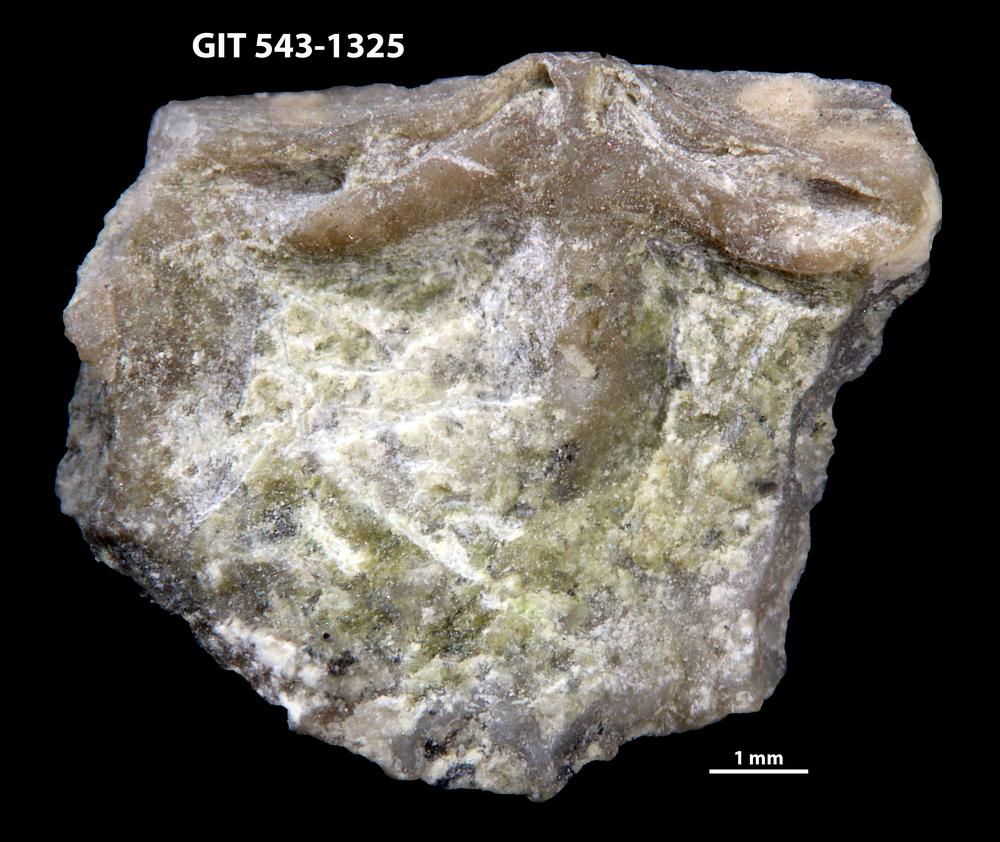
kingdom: Animalia
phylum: Brachiopoda
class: Rhynchonellata
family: Clitambonitidae
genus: Clitambonites
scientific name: Clitambonites
